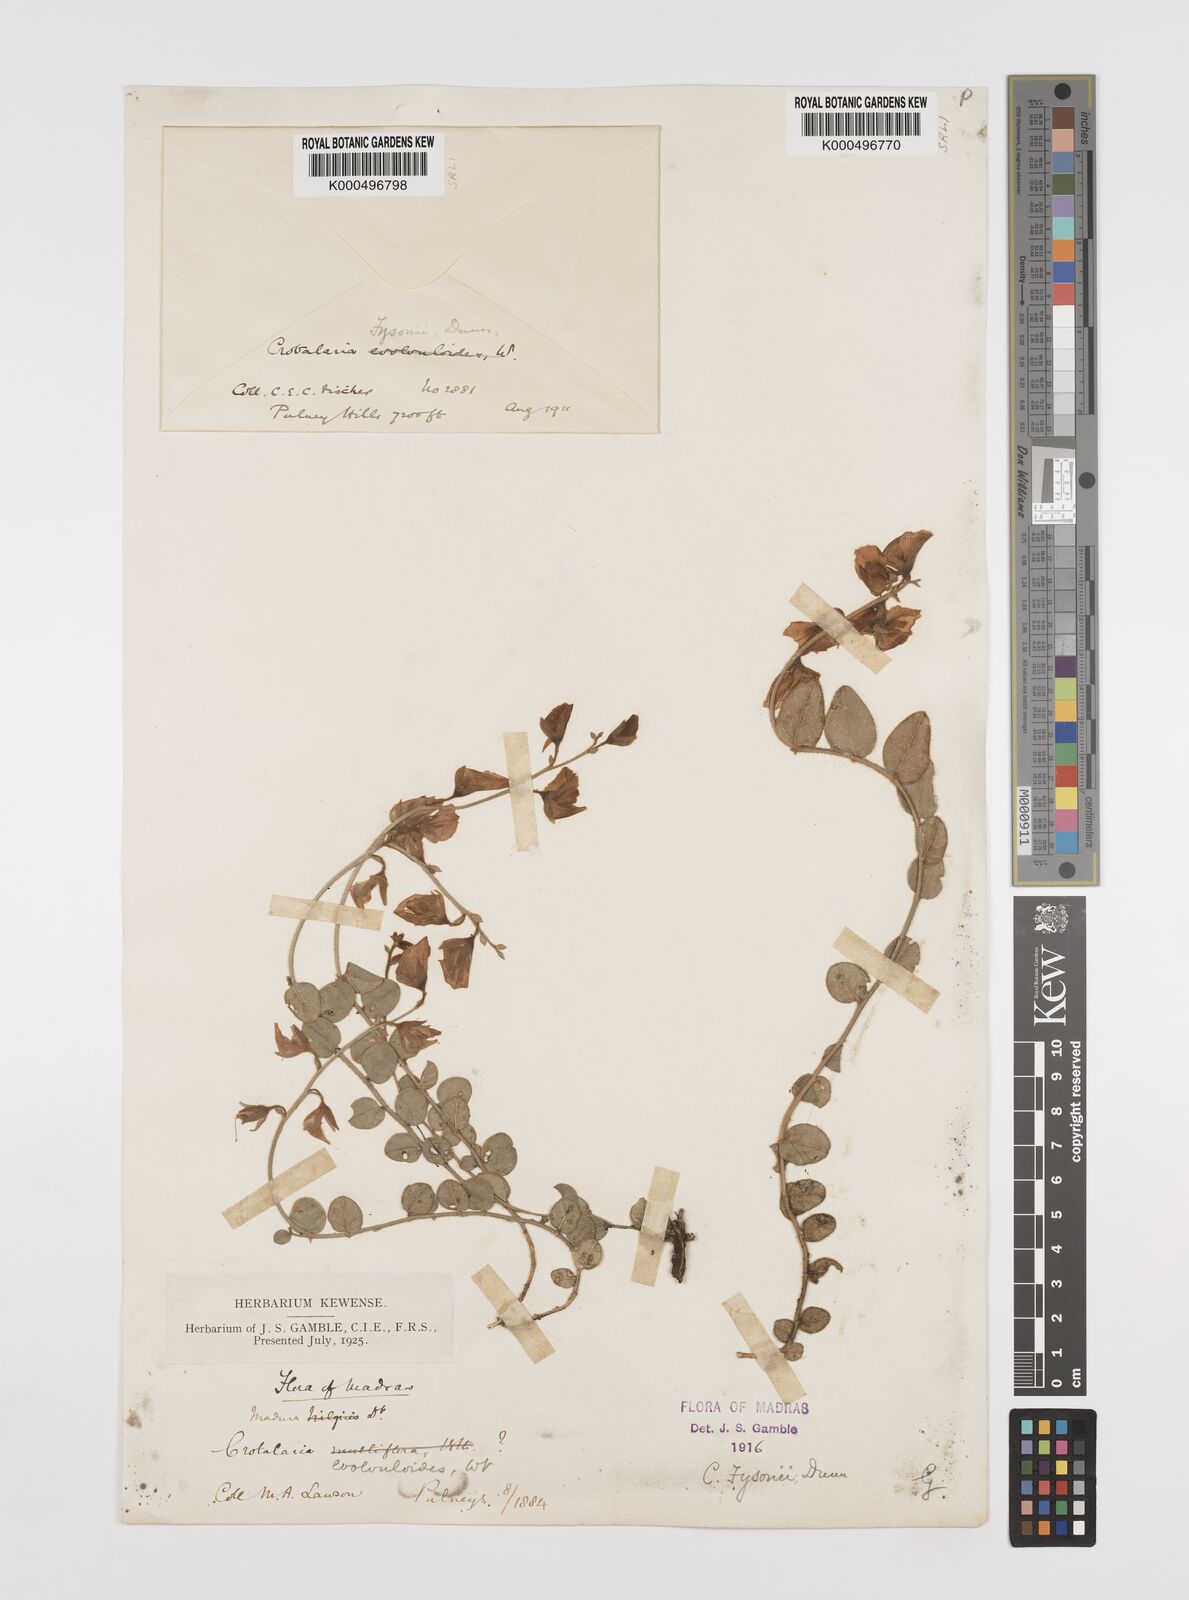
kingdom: Plantae
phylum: Tracheophyta
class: Magnoliopsida
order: Fabales
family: Fabaceae
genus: Crotalaria
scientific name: Crotalaria fysonii
